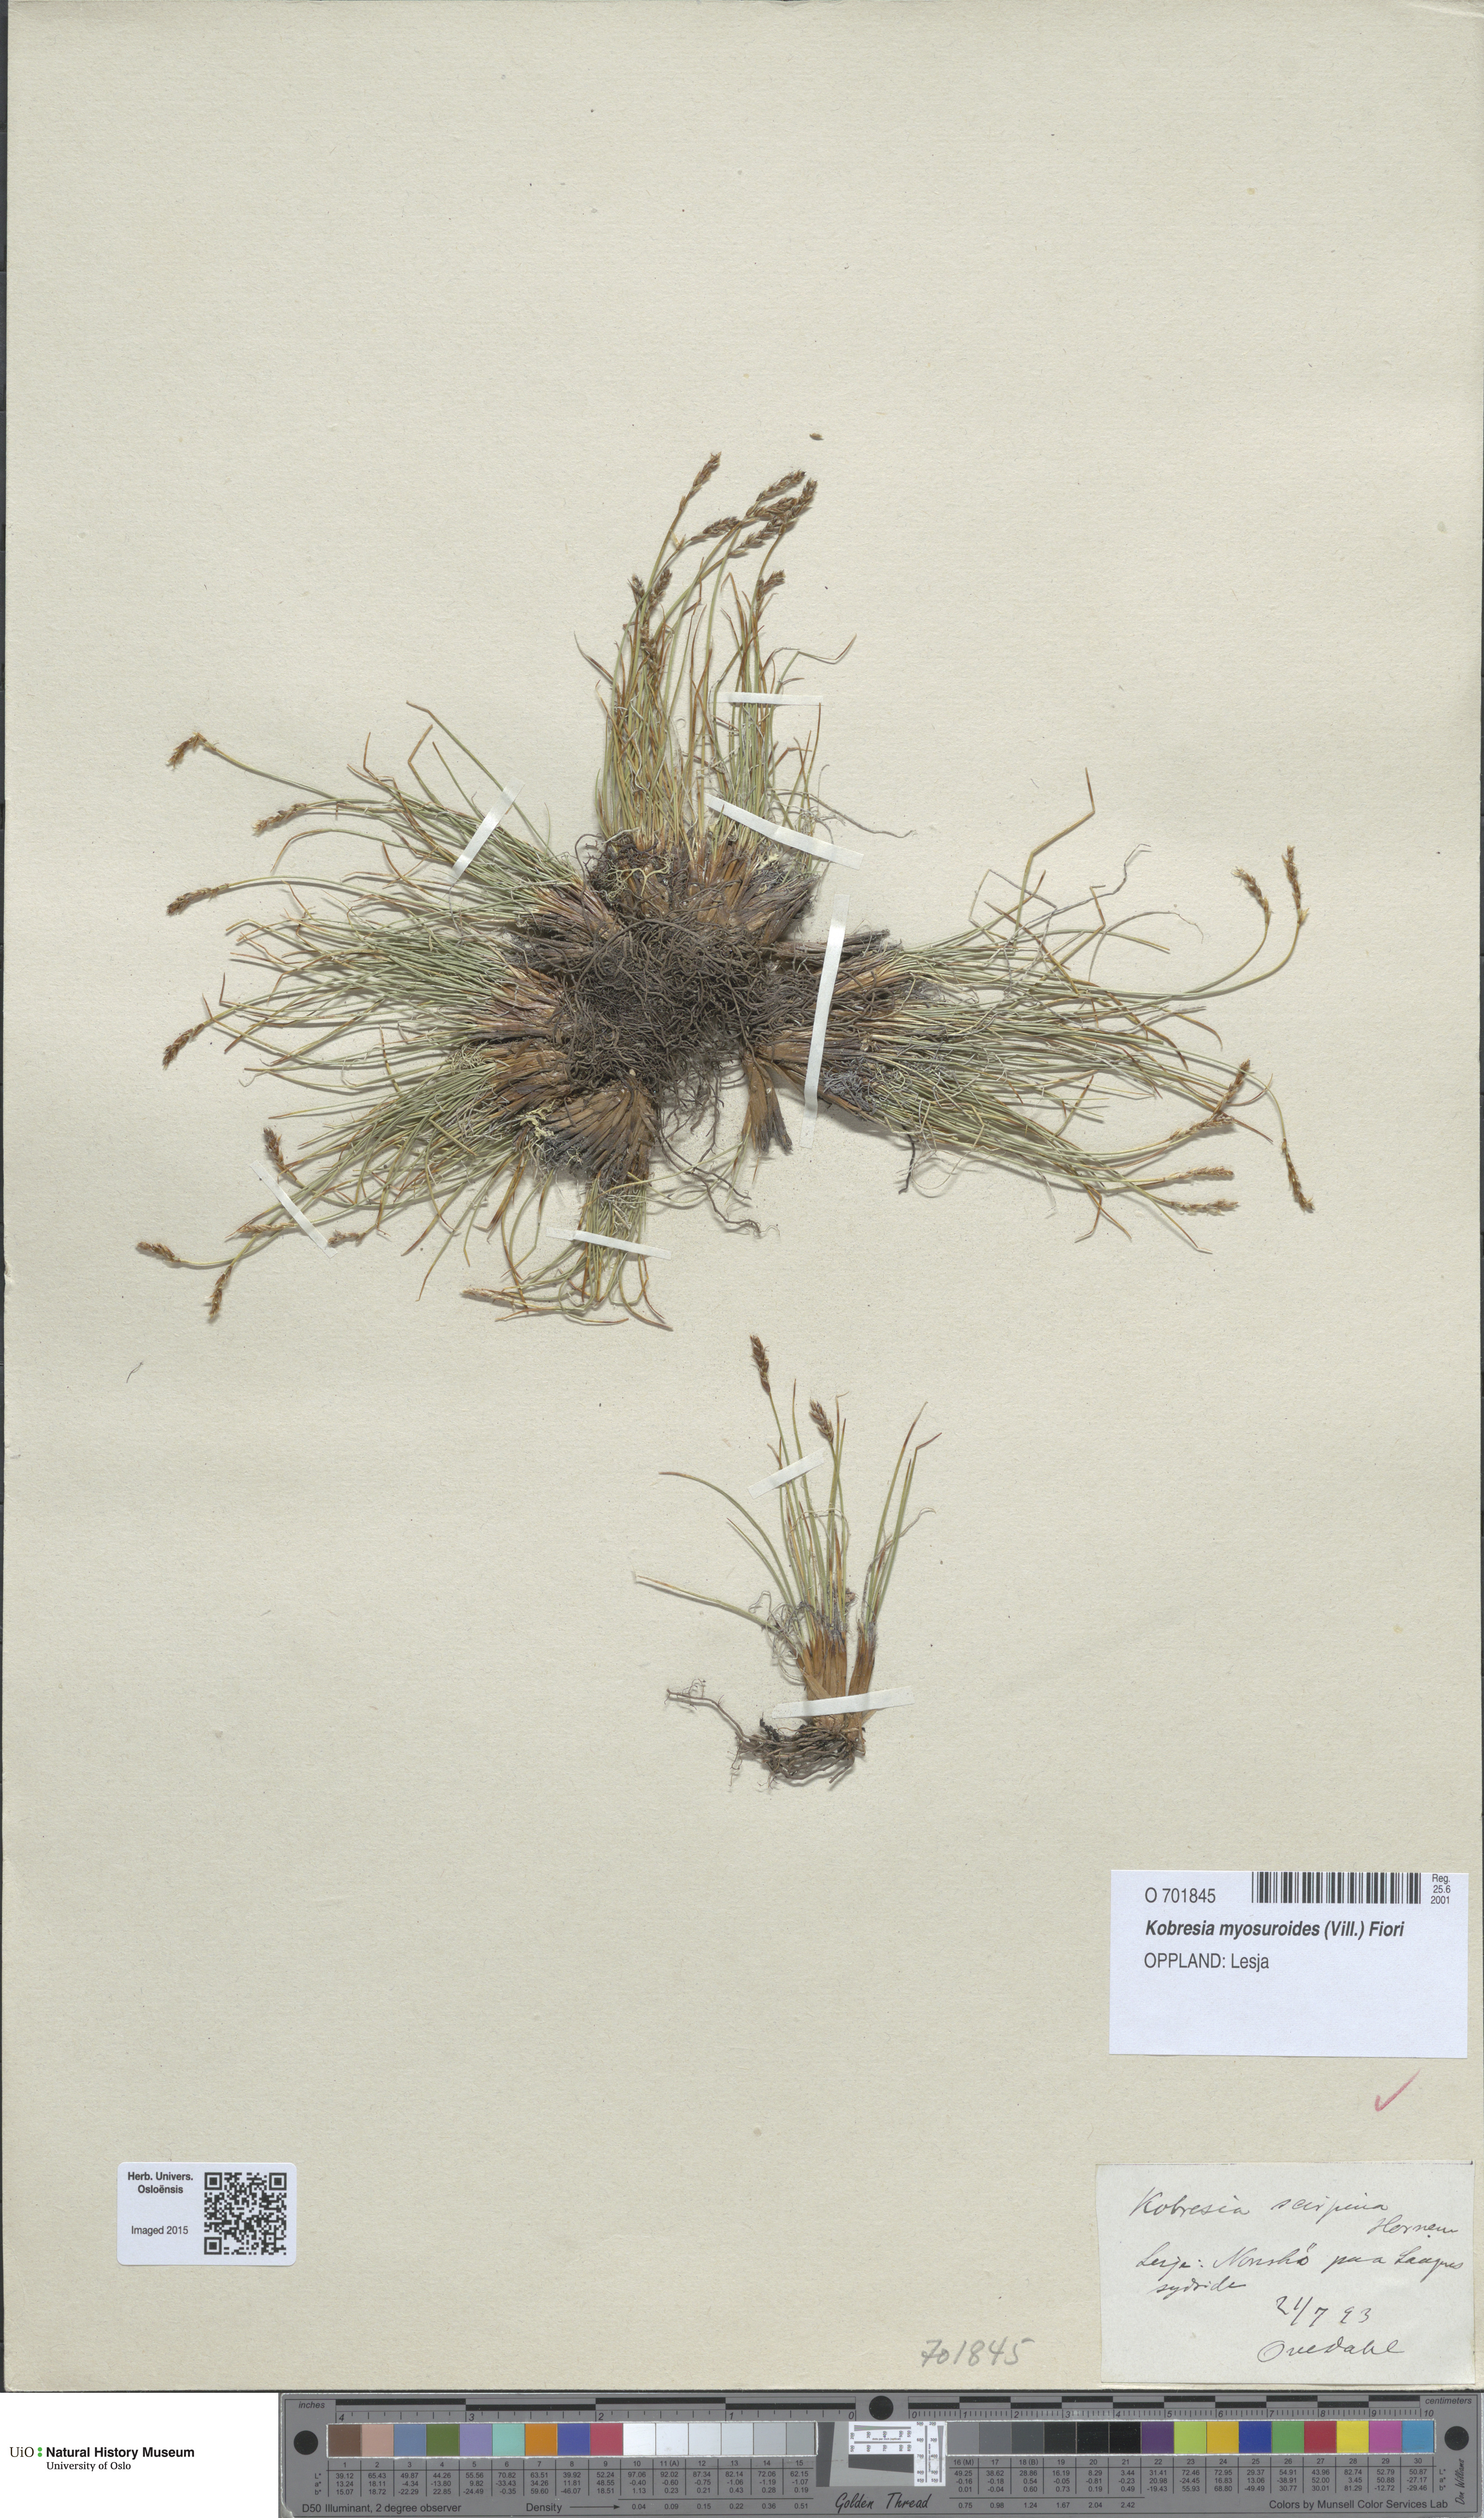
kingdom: Plantae
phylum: Tracheophyta
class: Liliopsida
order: Poales
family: Cyperaceae
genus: Carex
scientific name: Carex myosuroides
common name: Bellard's bog sedge
